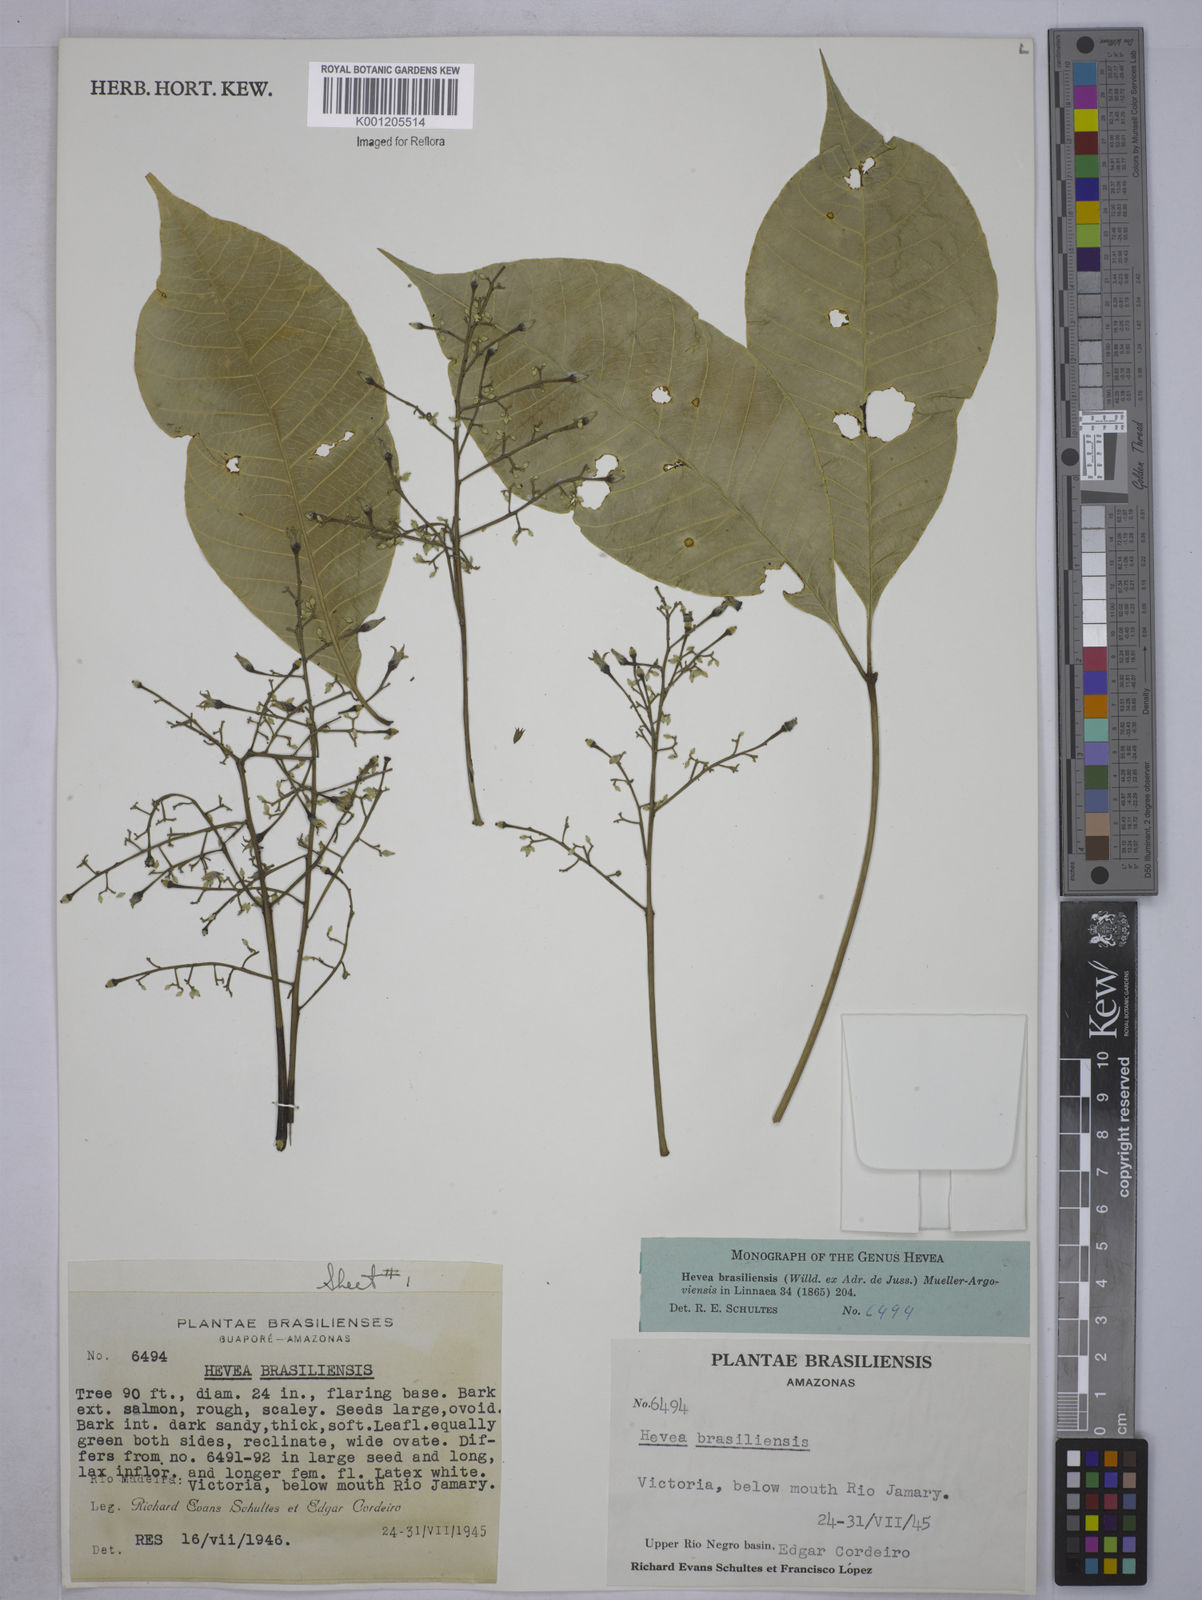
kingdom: Plantae
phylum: Tracheophyta
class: Magnoliopsida
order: Malpighiales
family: Euphorbiaceae
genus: Hevea
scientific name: Hevea
